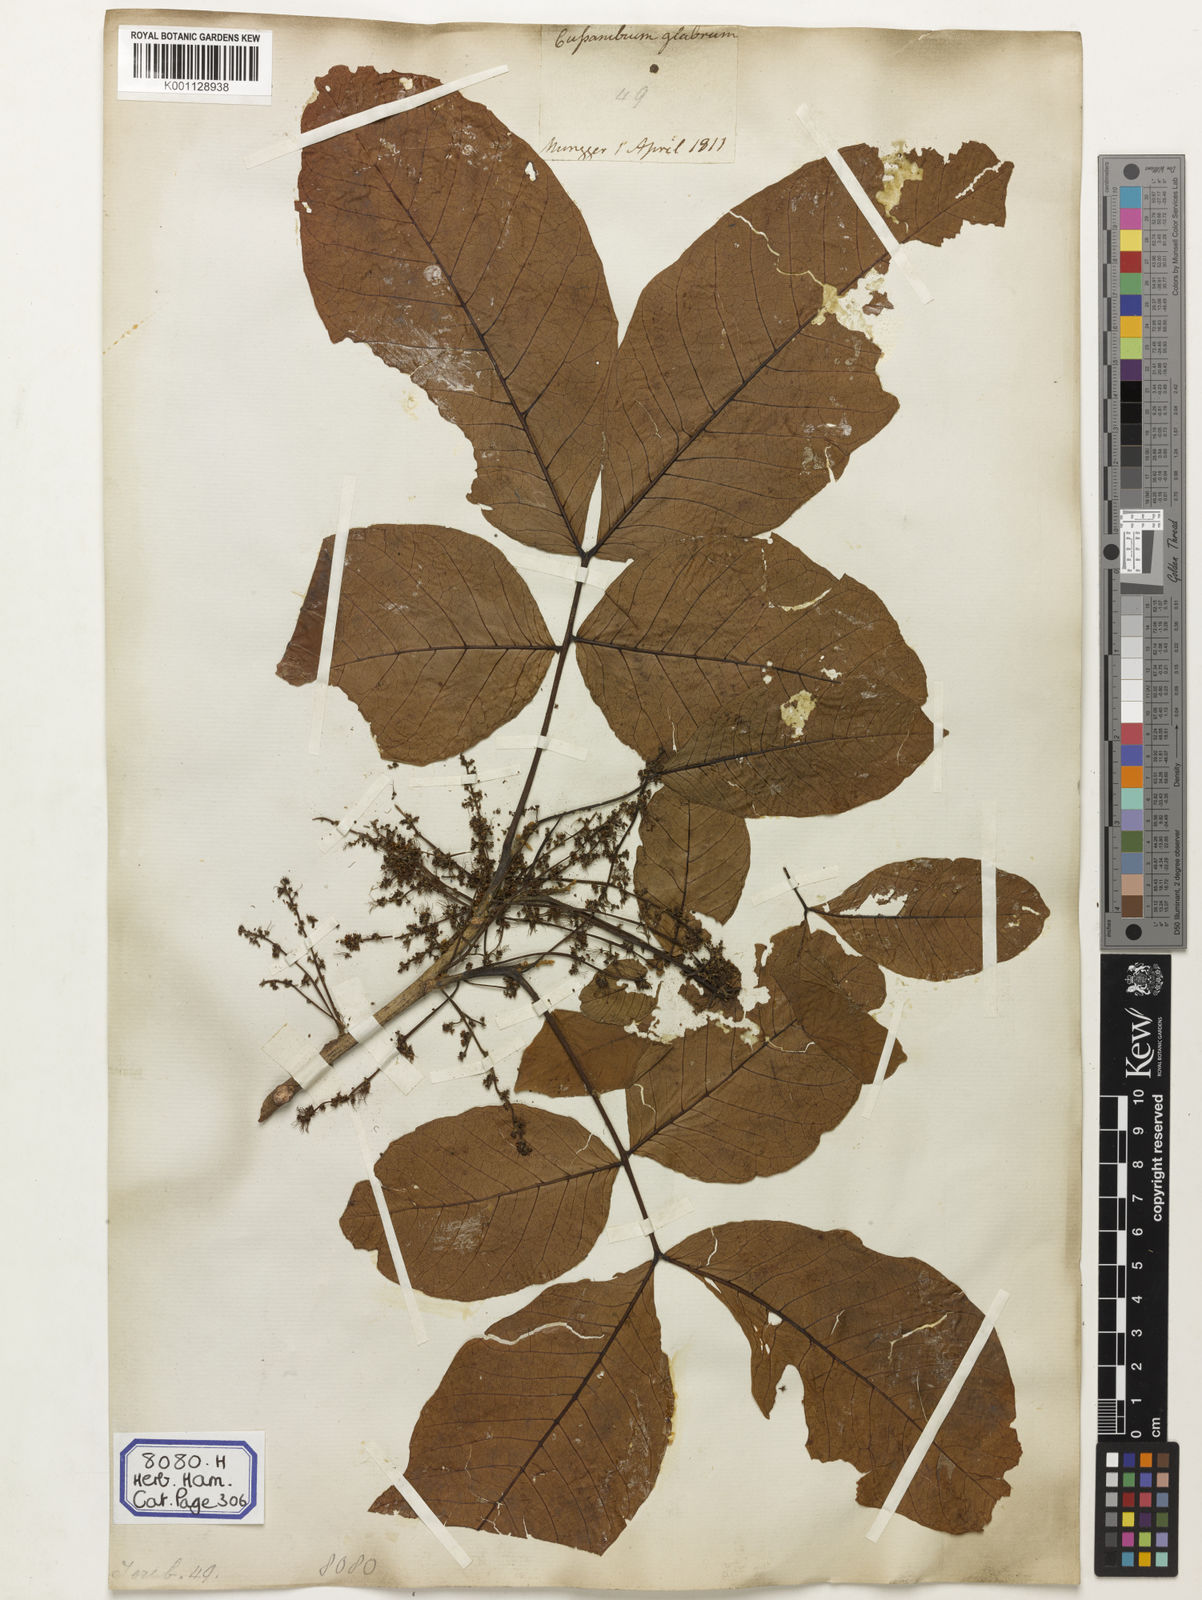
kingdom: Plantae
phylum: Tracheophyta
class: Magnoliopsida
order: Sapindales
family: Sapindaceae
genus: Schleichera
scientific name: Schleichera oleosa
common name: Malay lactree
